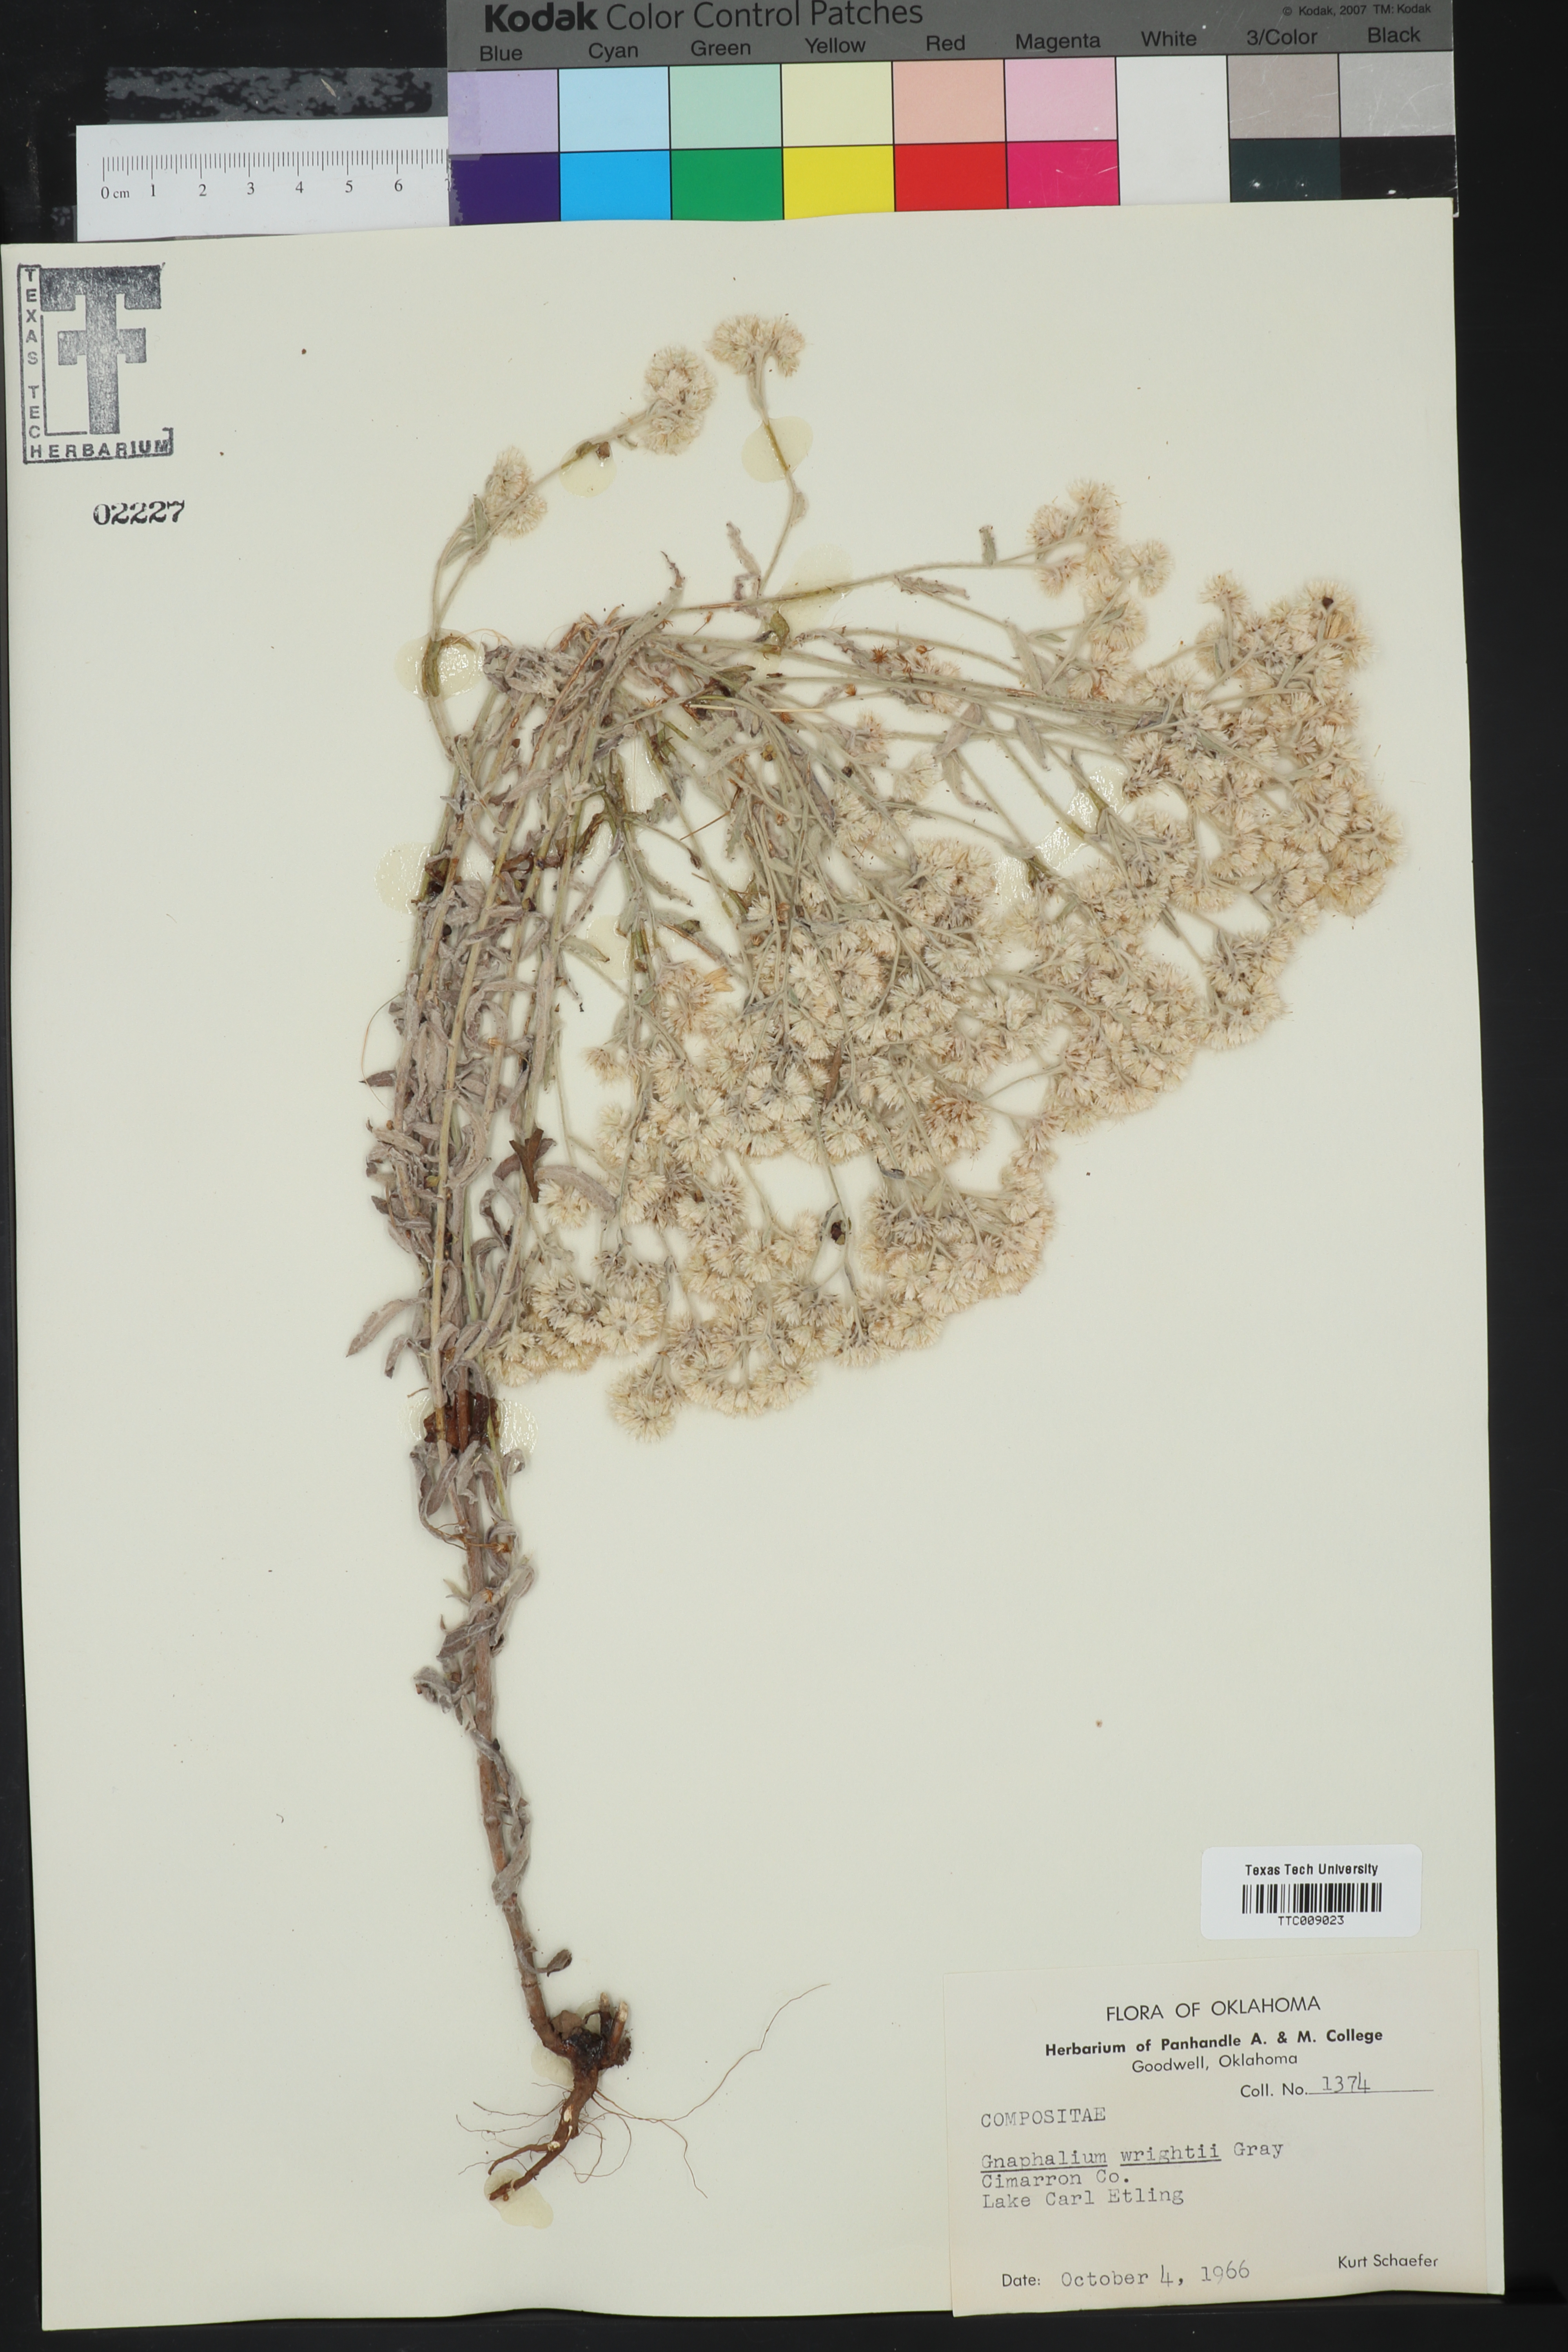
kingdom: Plantae
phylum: Tracheophyta
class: Magnoliopsida
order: Asterales
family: Asteraceae
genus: Pseudognaphalium
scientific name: Pseudognaphalium canescens
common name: Wright's rabbit-tobacco
